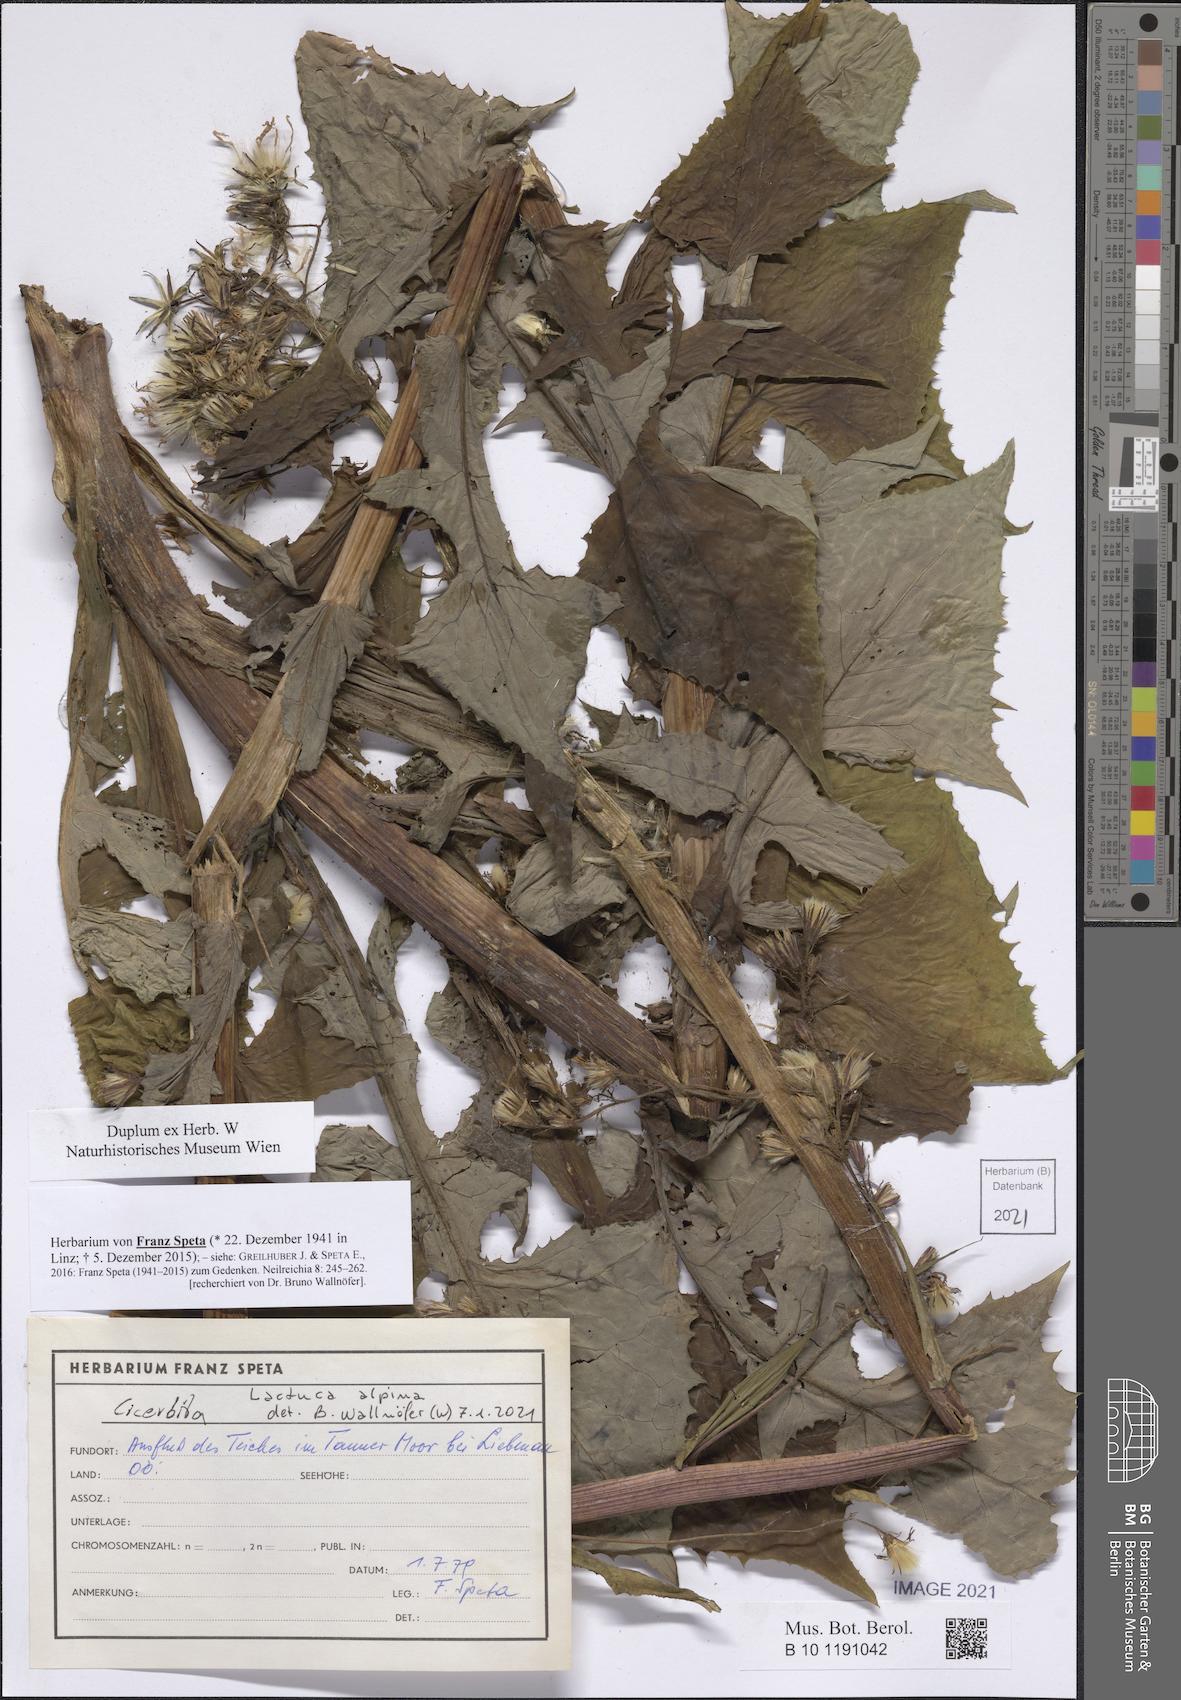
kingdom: Plantae
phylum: Tracheophyta
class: Magnoliopsida
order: Asterales
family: Asteraceae
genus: Lactuca
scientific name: Lactuca alpina
